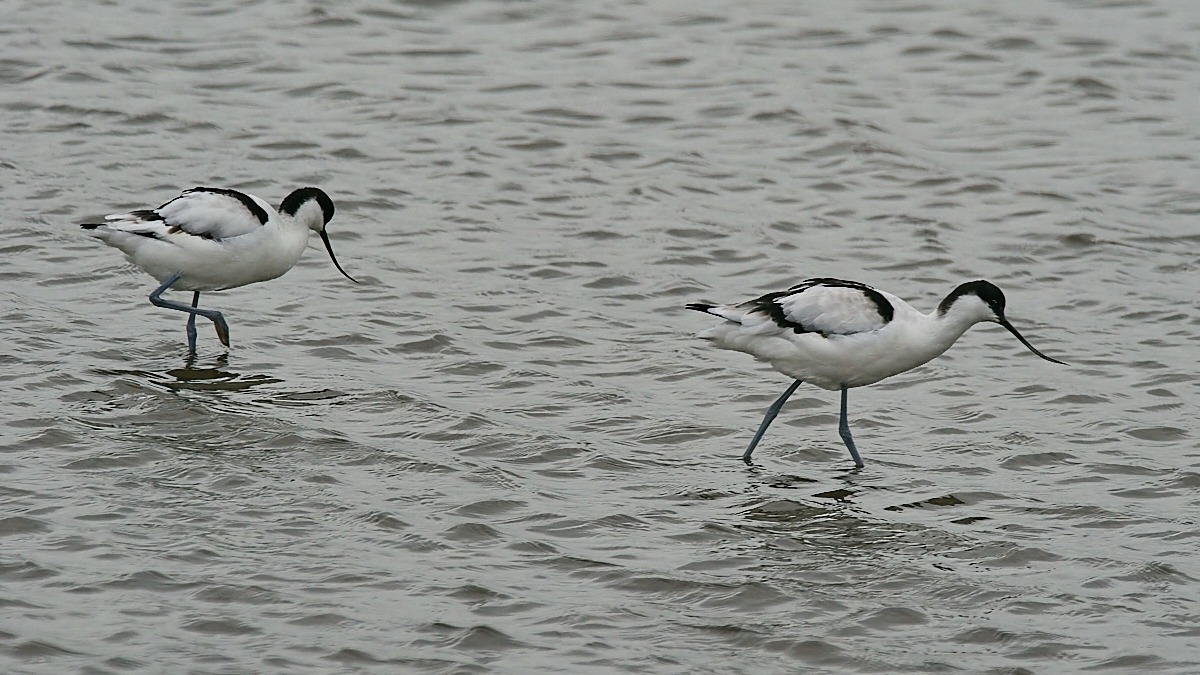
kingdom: Animalia
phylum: Chordata
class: Aves
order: Charadriiformes
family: Recurvirostridae
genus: Recurvirostra
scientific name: Recurvirostra avosetta
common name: Klyde
